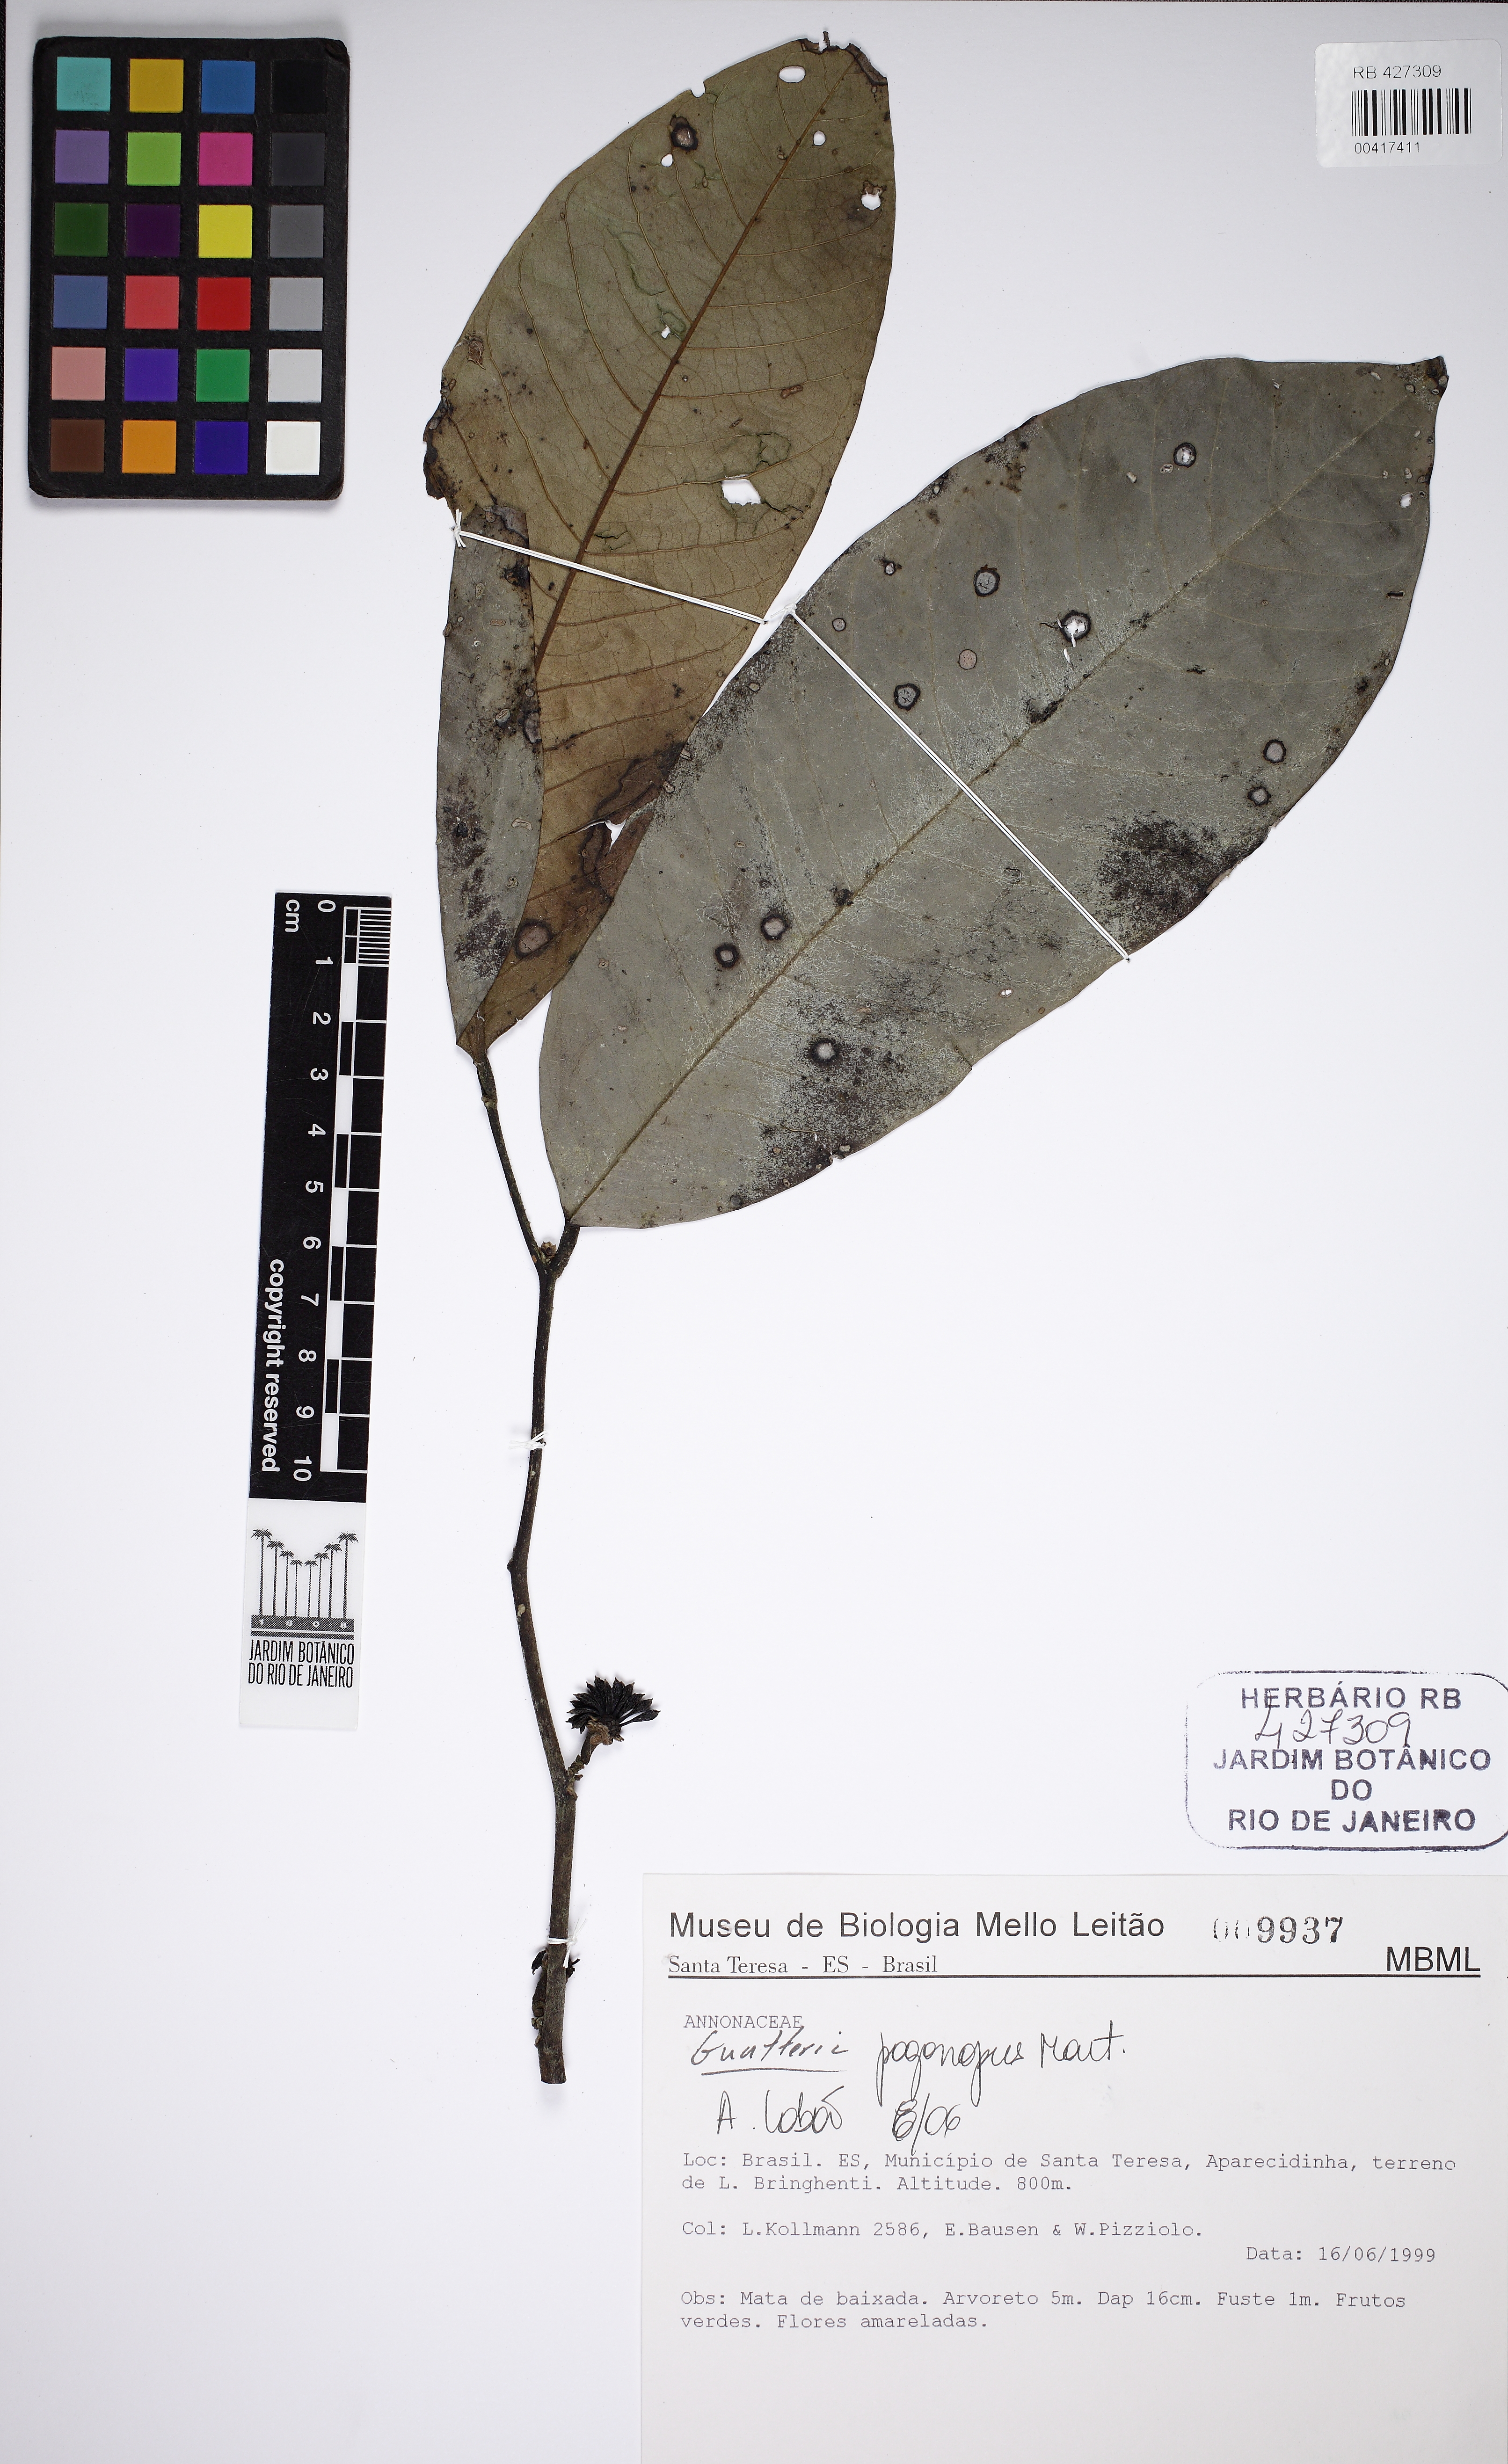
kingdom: Plantae
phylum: Tracheophyta
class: Magnoliopsida
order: Magnoliales
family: Annonaceae
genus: Guatteria
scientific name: Guatteria pogonopus
